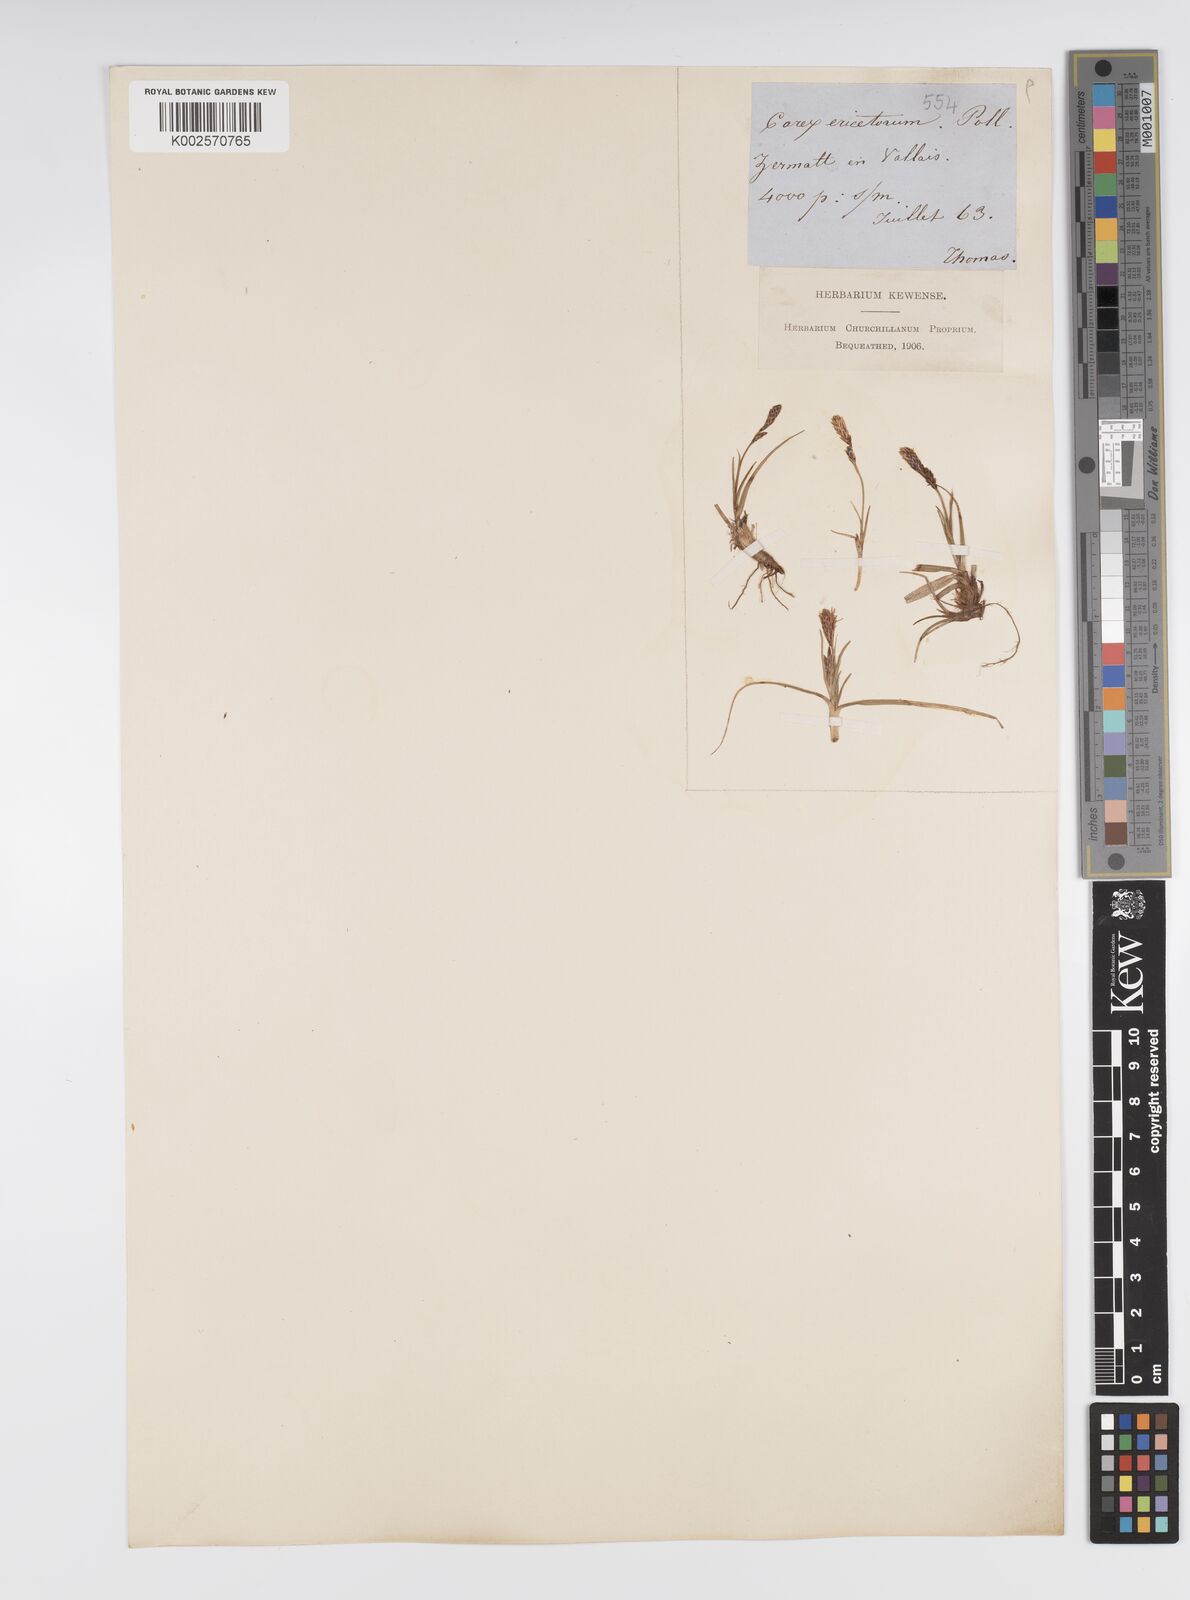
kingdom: Plantae
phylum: Tracheophyta
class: Liliopsida
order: Poales
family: Cyperaceae
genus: Carex
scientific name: Carex ericetorum
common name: Rare spring-sedge
